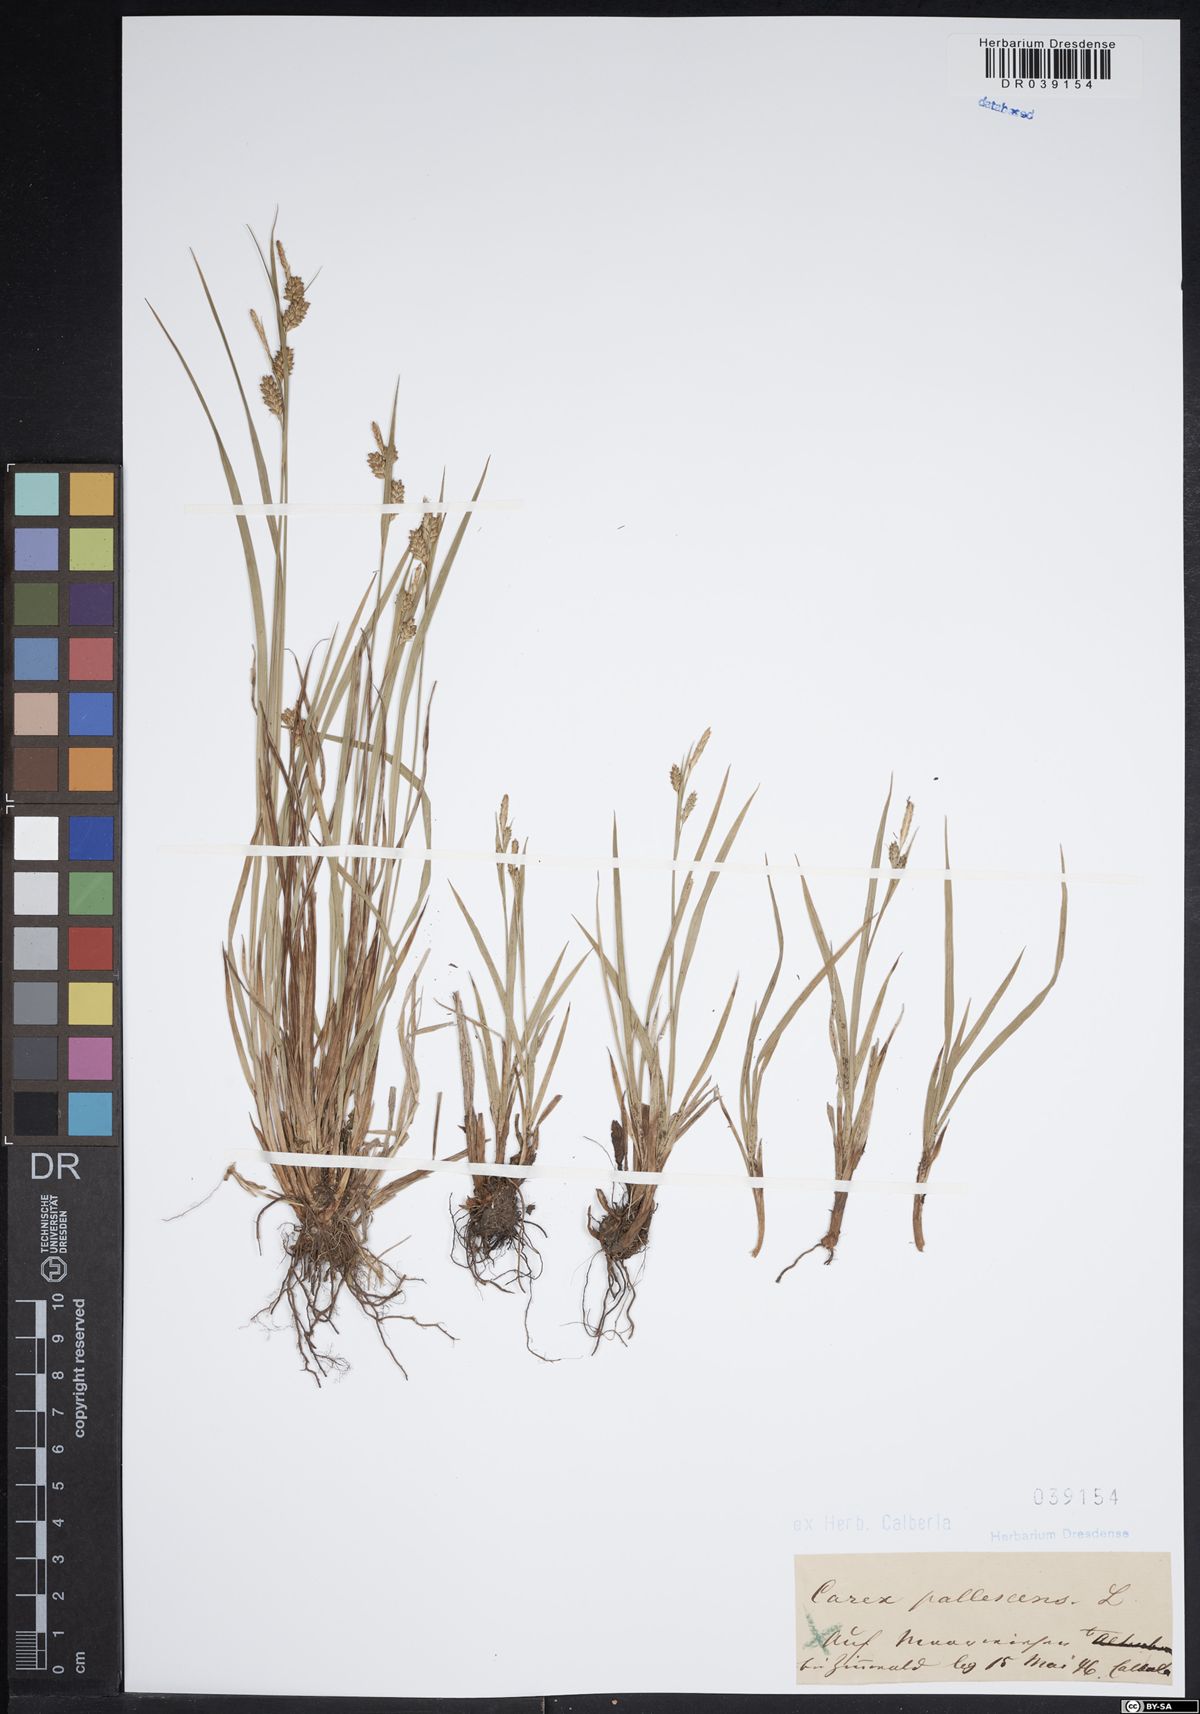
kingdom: Plantae
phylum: Tracheophyta
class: Liliopsida
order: Poales
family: Cyperaceae
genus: Carex
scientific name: Carex pallescens
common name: Pale sedge
